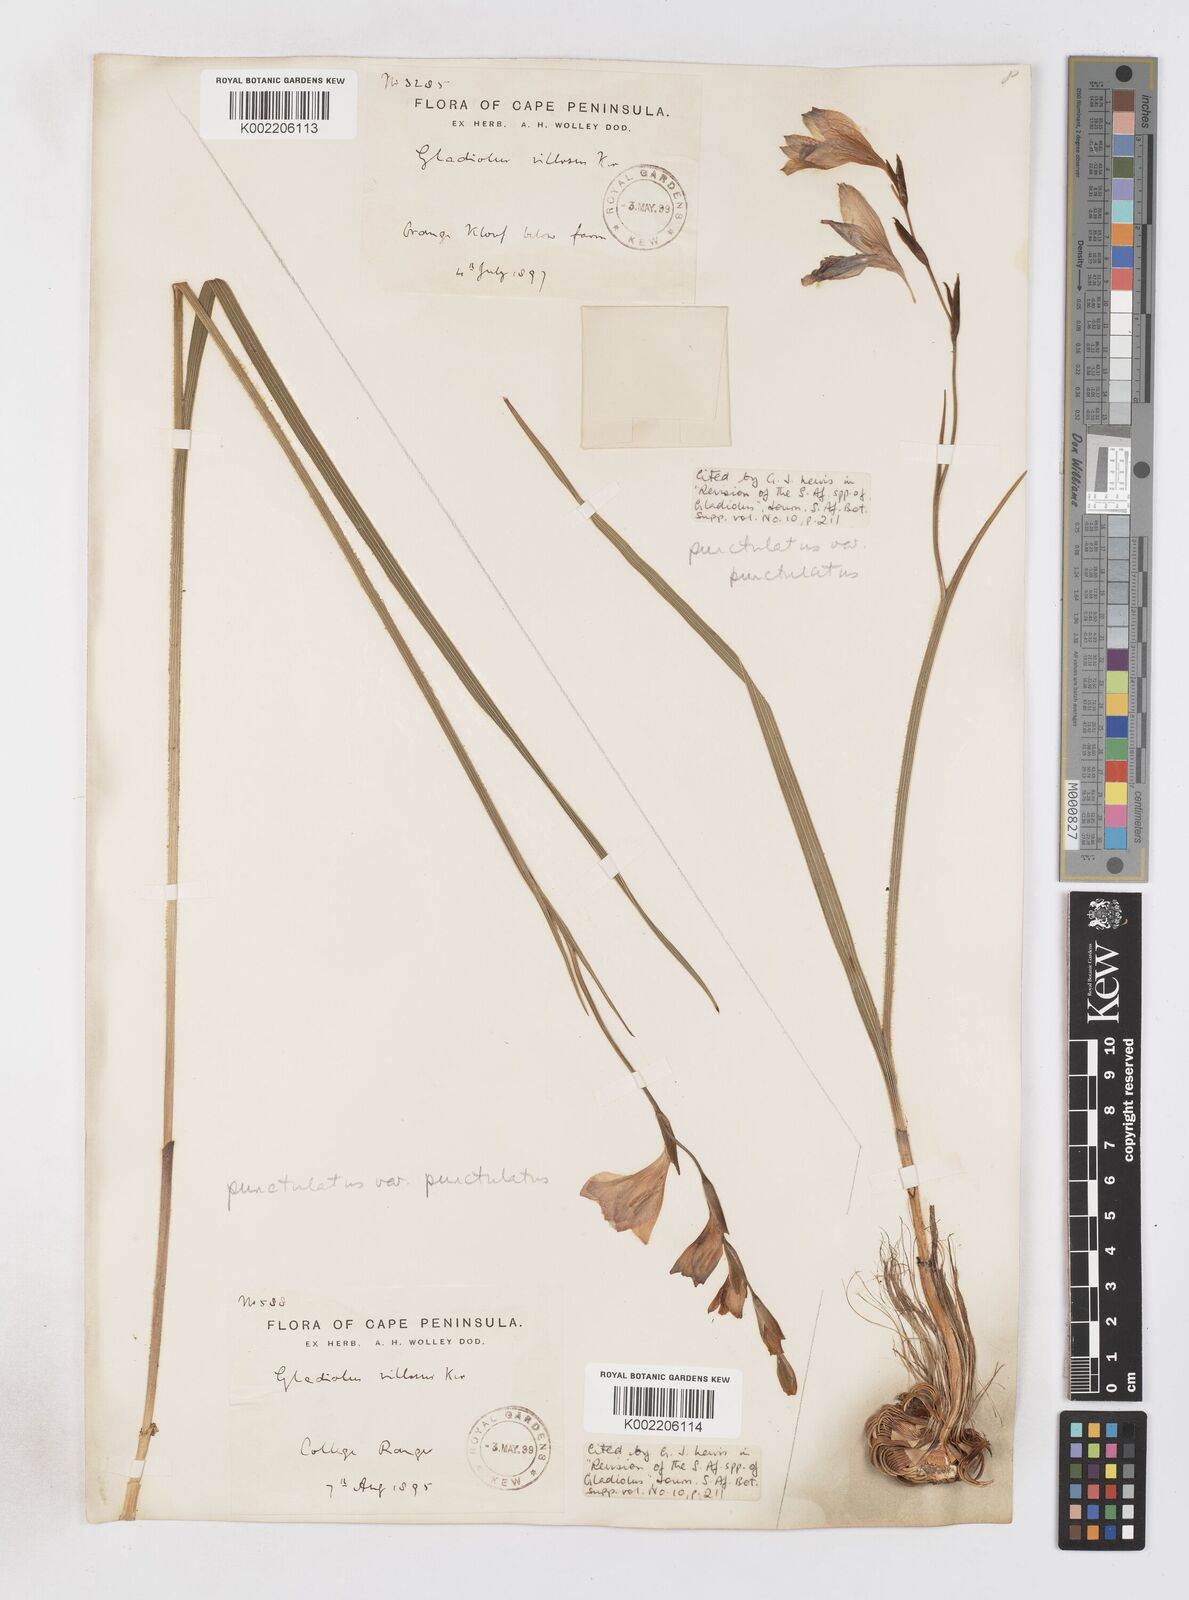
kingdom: Plantae
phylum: Tracheophyta
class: Liliopsida
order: Asparagales
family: Iridaceae
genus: Gladiolus
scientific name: Gladiolus hirsutus
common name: Small pink afrikaner
